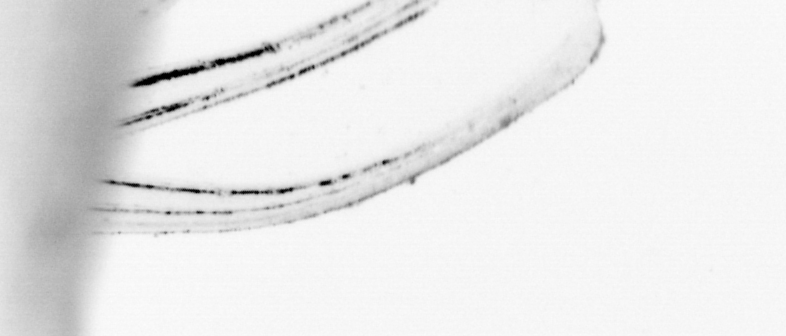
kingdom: Animalia
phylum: Chordata
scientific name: Chordata
